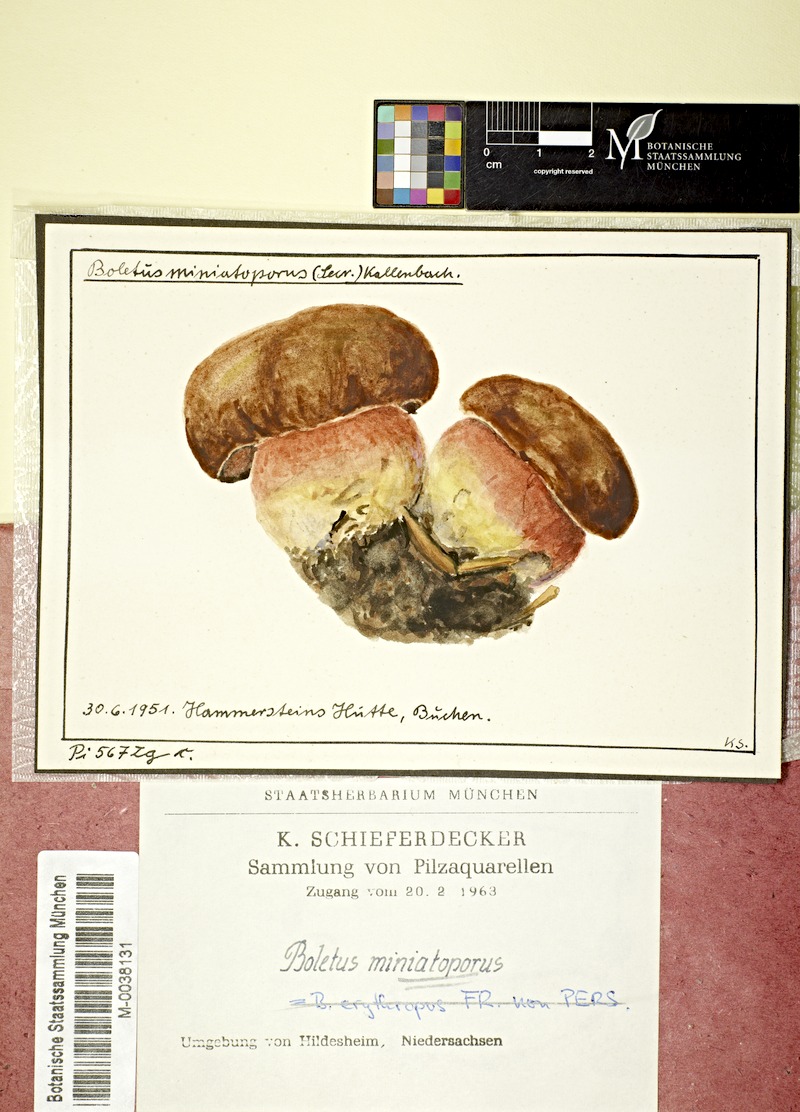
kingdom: Fungi
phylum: Basidiomycota
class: Agaricomycetes
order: Boletales
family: Boletaceae
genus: Neoboletus
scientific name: Neoboletus erythropus
